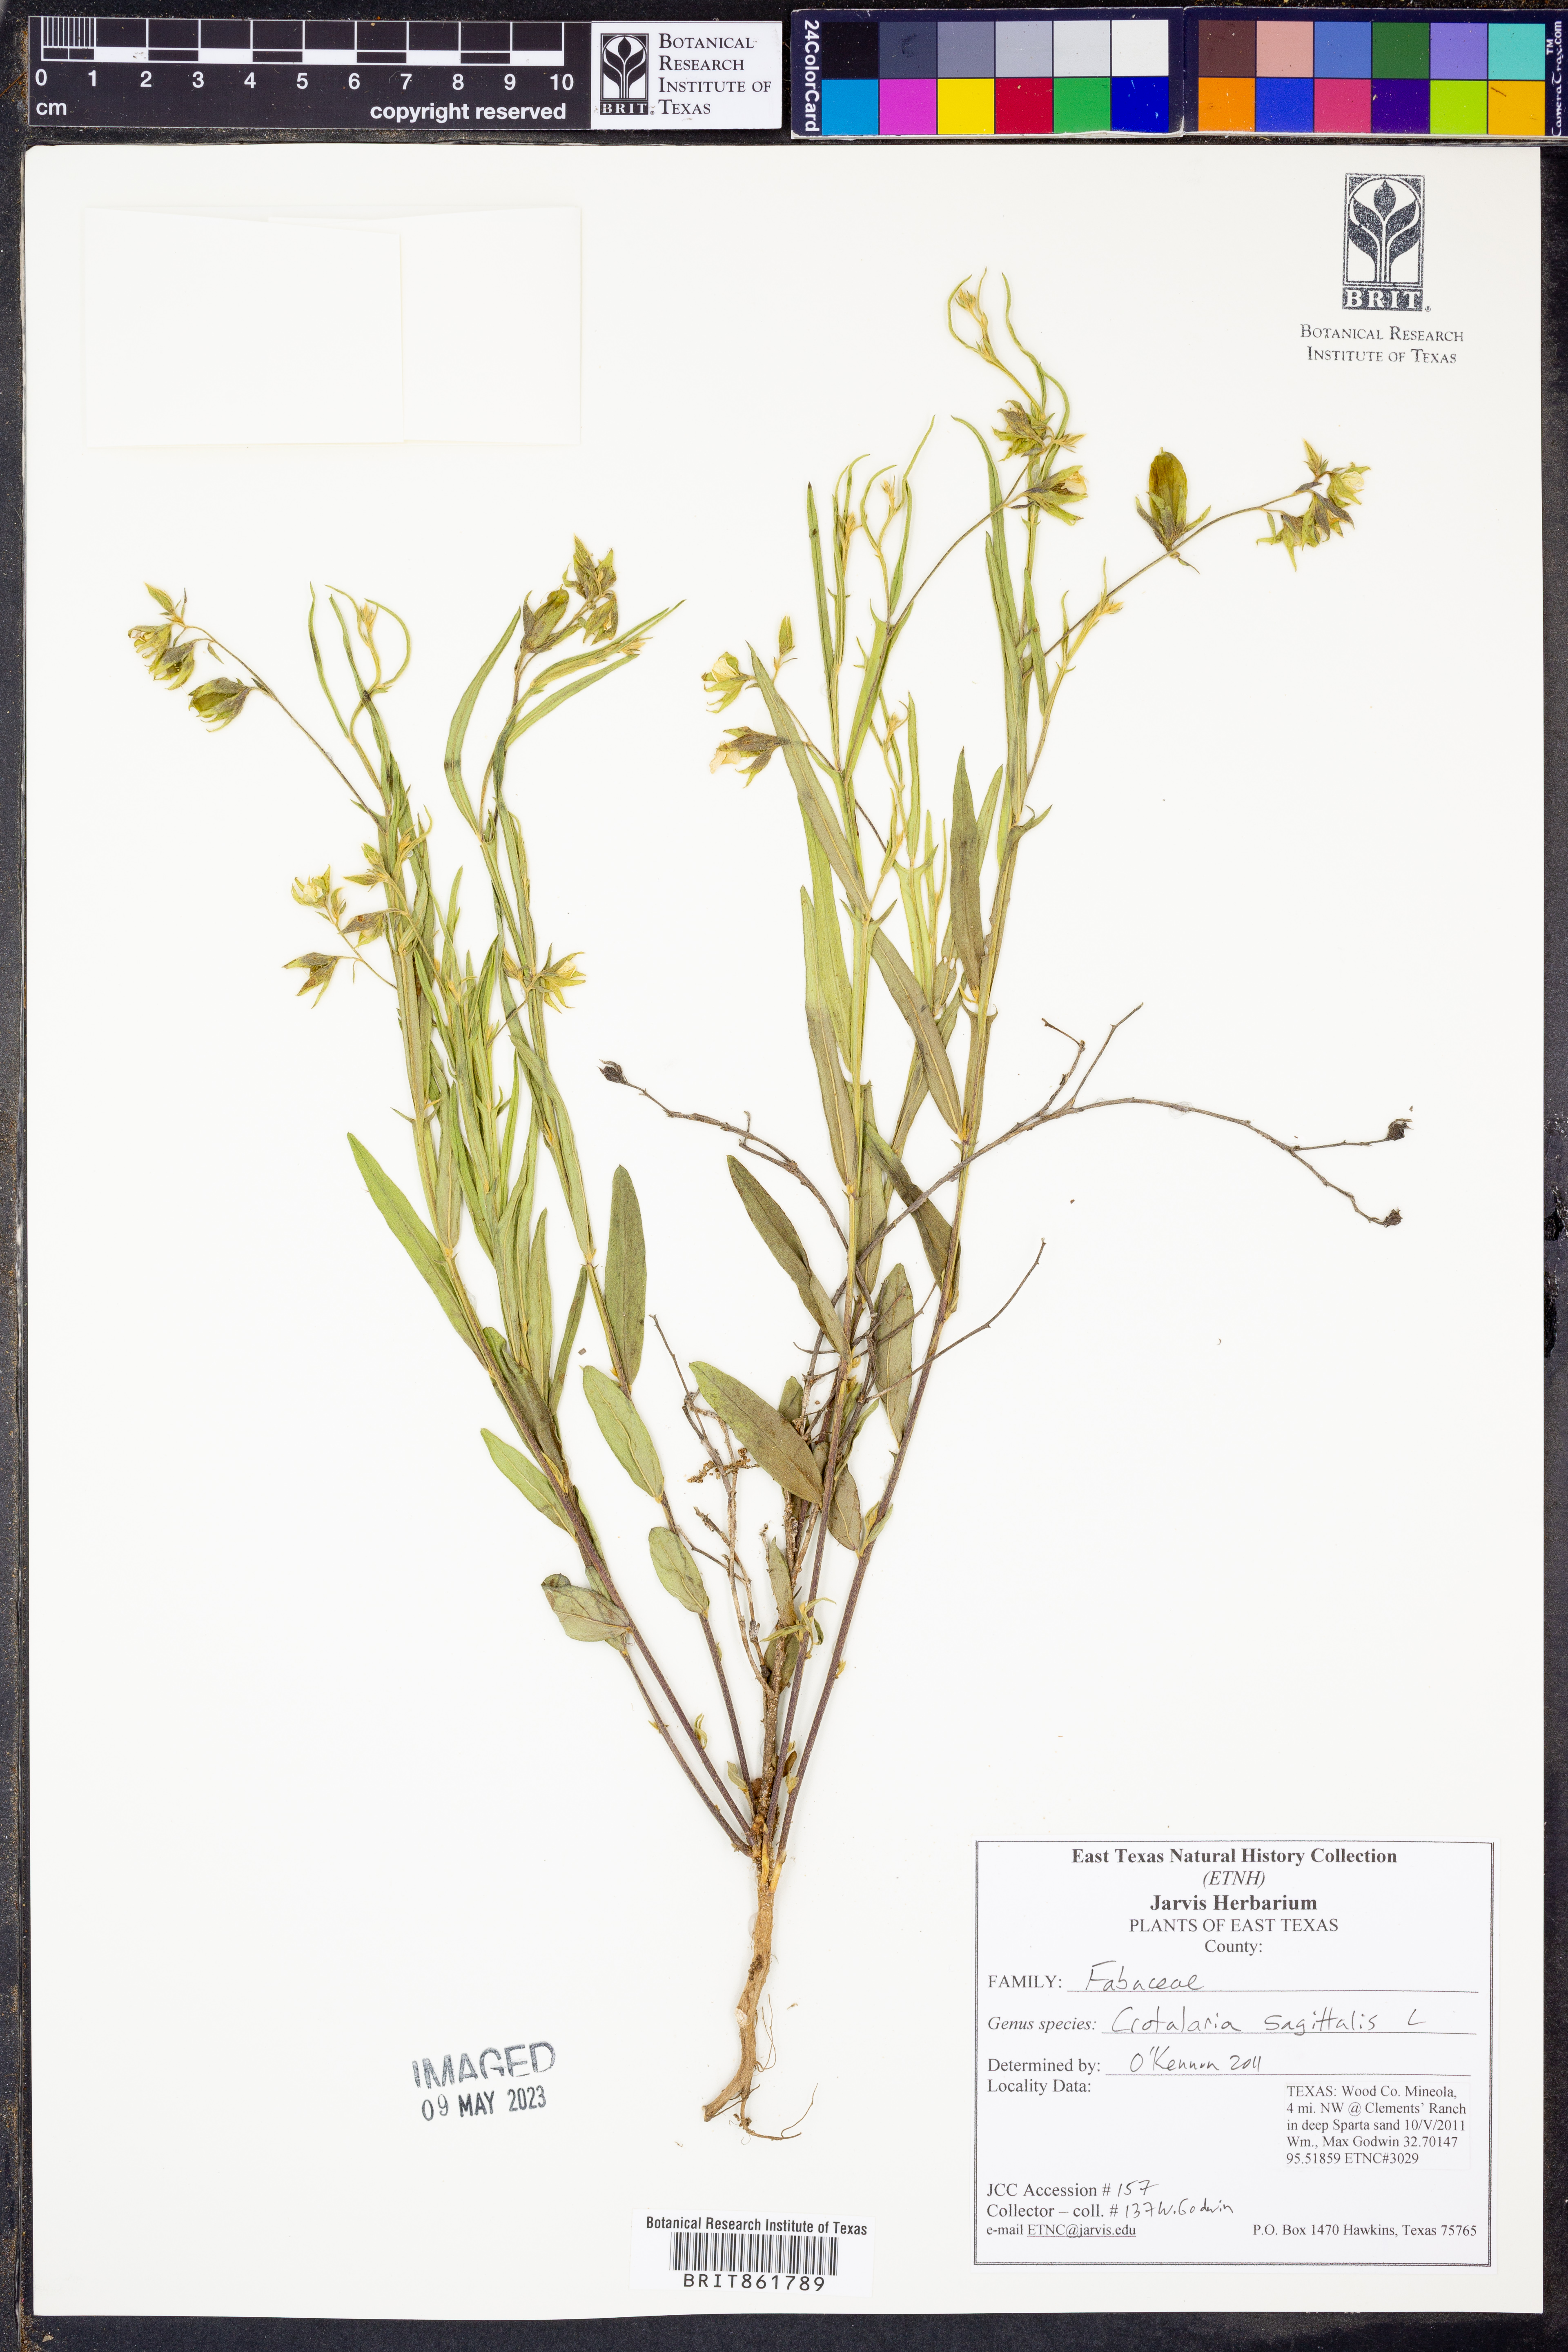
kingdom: Plantae
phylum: Tracheophyta
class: Magnoliopsida
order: Fabales
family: Fabaceae
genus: Crotalaria
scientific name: Crotalaria sagittalis
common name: Arrowhead rattlebox
